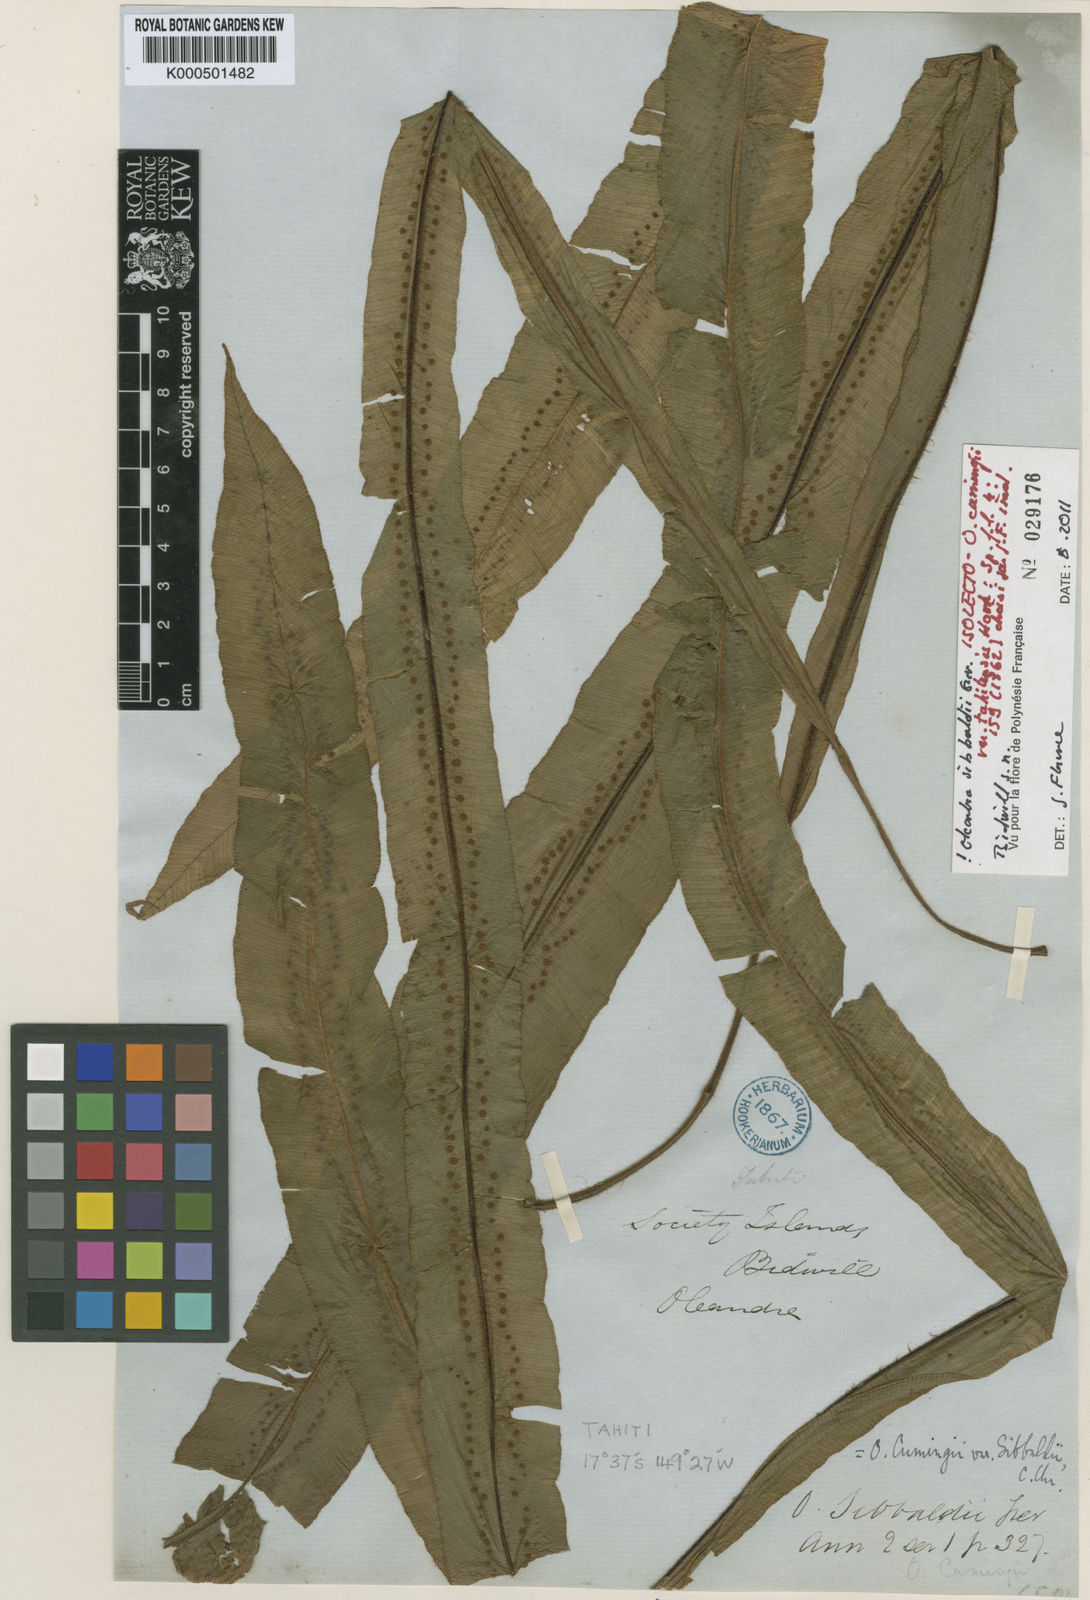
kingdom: Plantae
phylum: Tracheophyta
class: Polypodiopsida
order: Polypodiales
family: Oleandraceae
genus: Oleandra
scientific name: Oleandra sibbaldii
